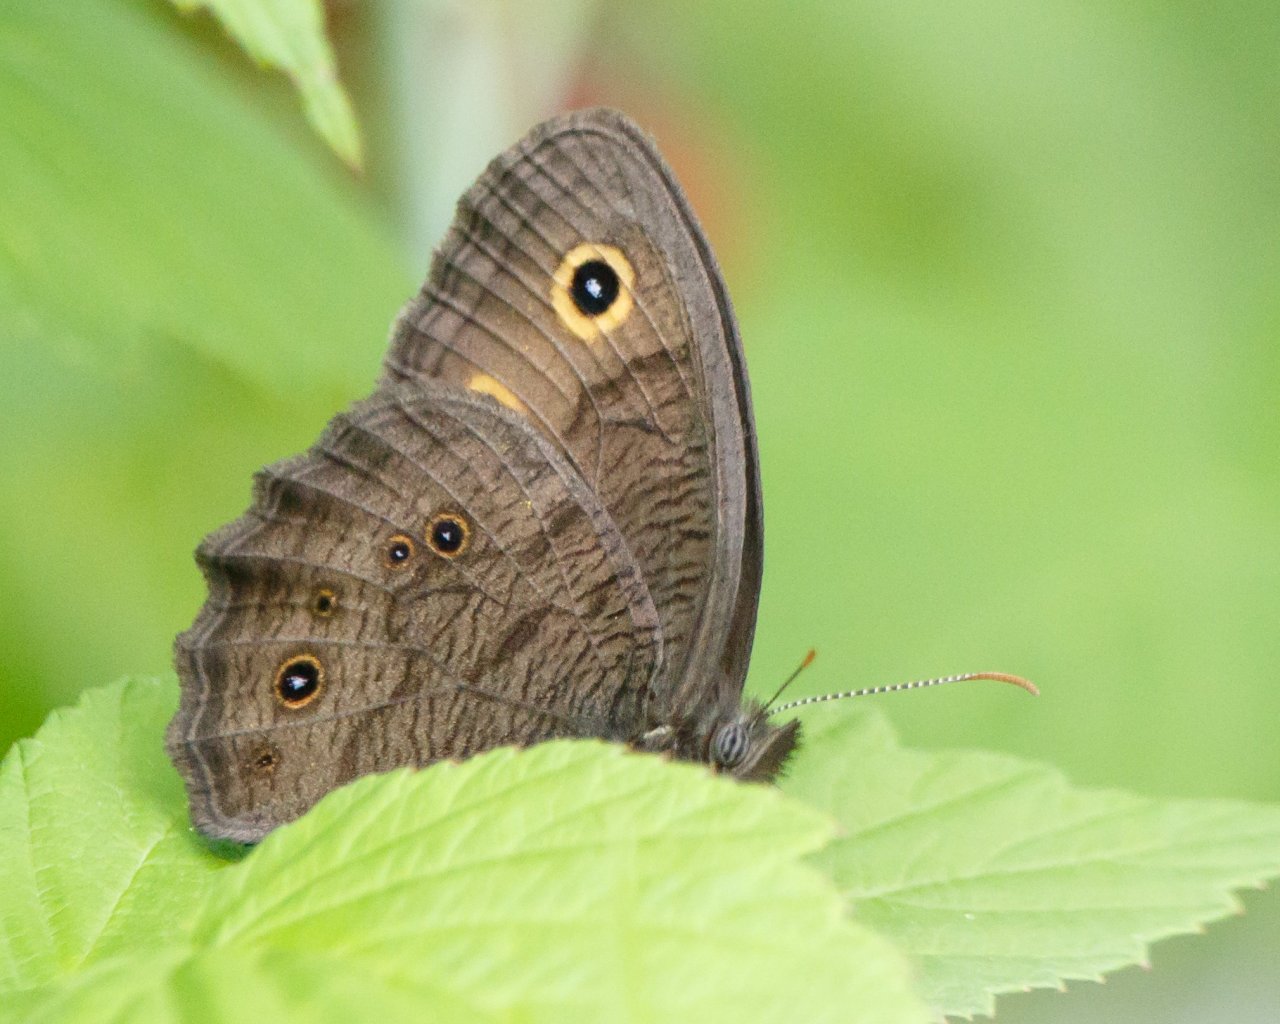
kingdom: Animalia
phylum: Arthropoda
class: Insecta
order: Lepidoptera
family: Nymphalidae
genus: Cercyonis
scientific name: Cercyonis pegala
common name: Common Wood-Nymph
